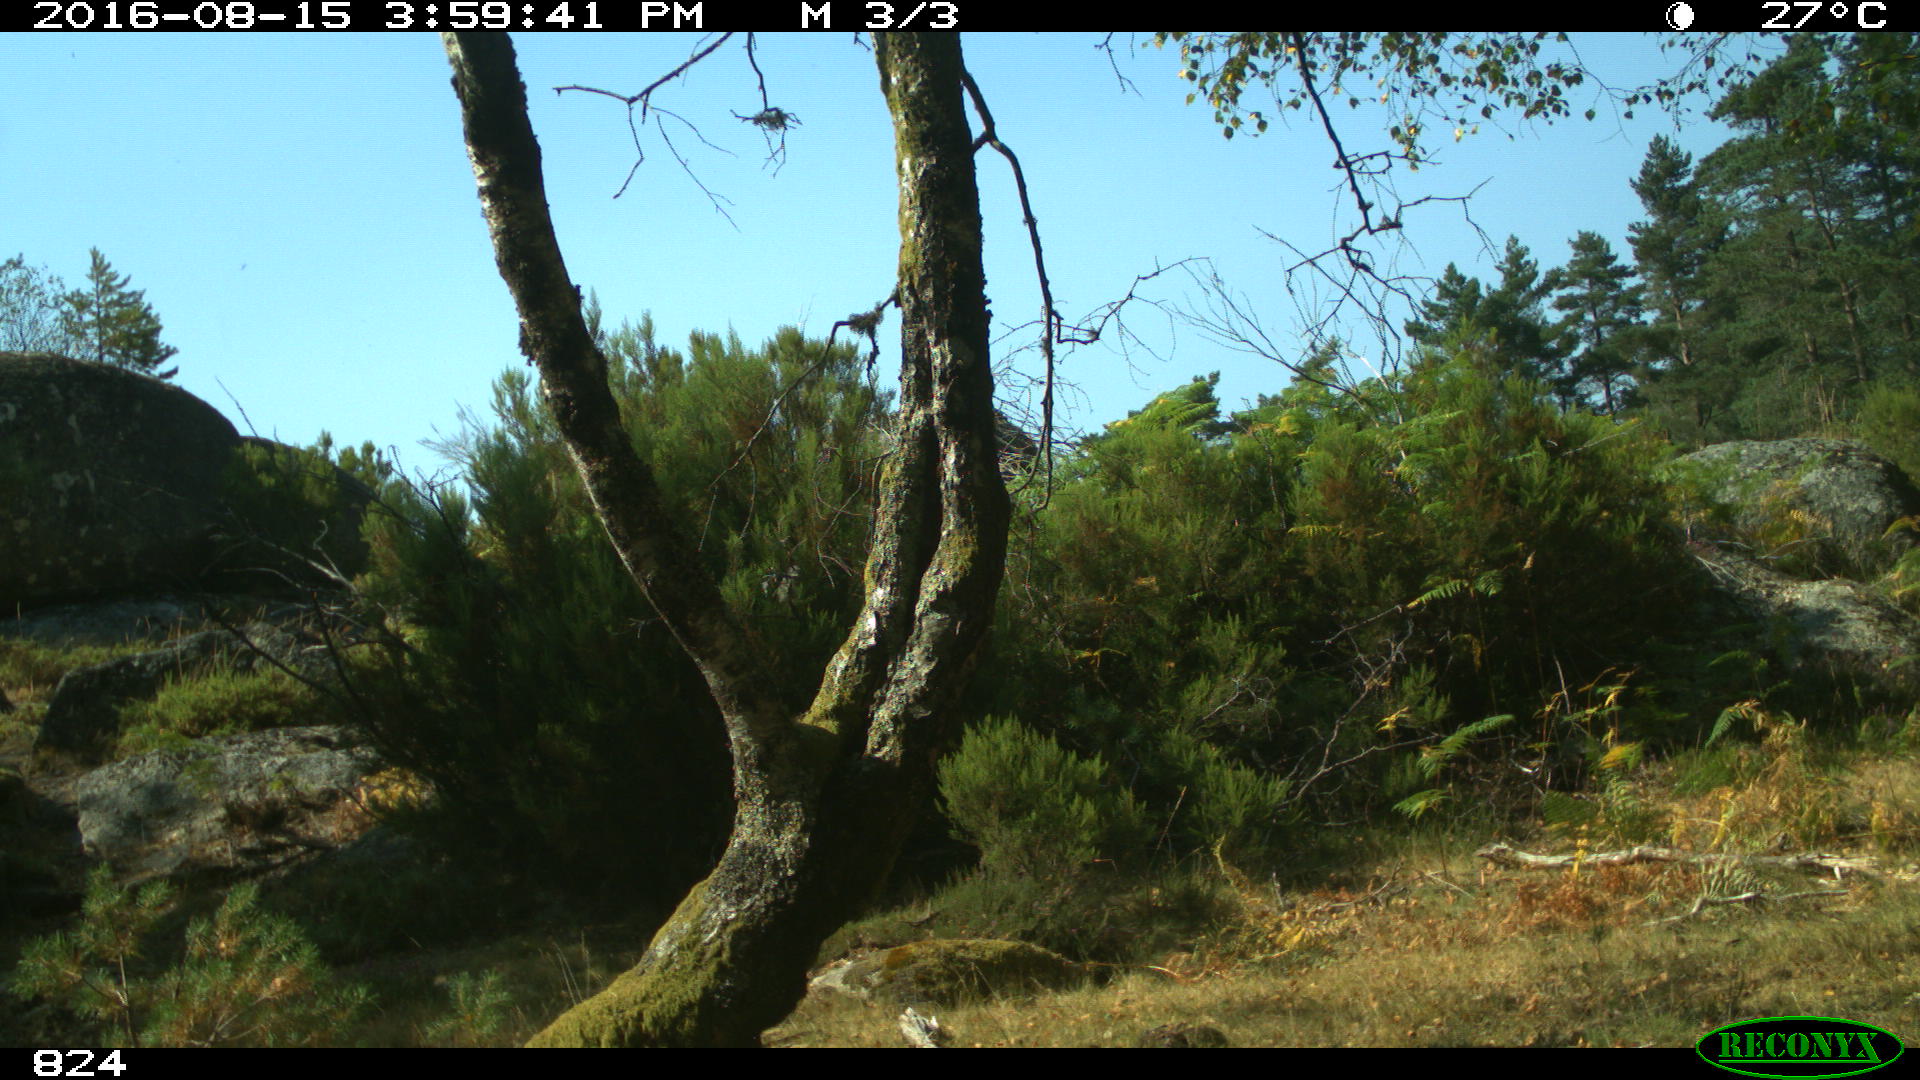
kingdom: Animalia
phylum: Chordata
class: Mammalia
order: Perissodactyla
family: Equidae
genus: Equus
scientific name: Equus caballus
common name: Horse
